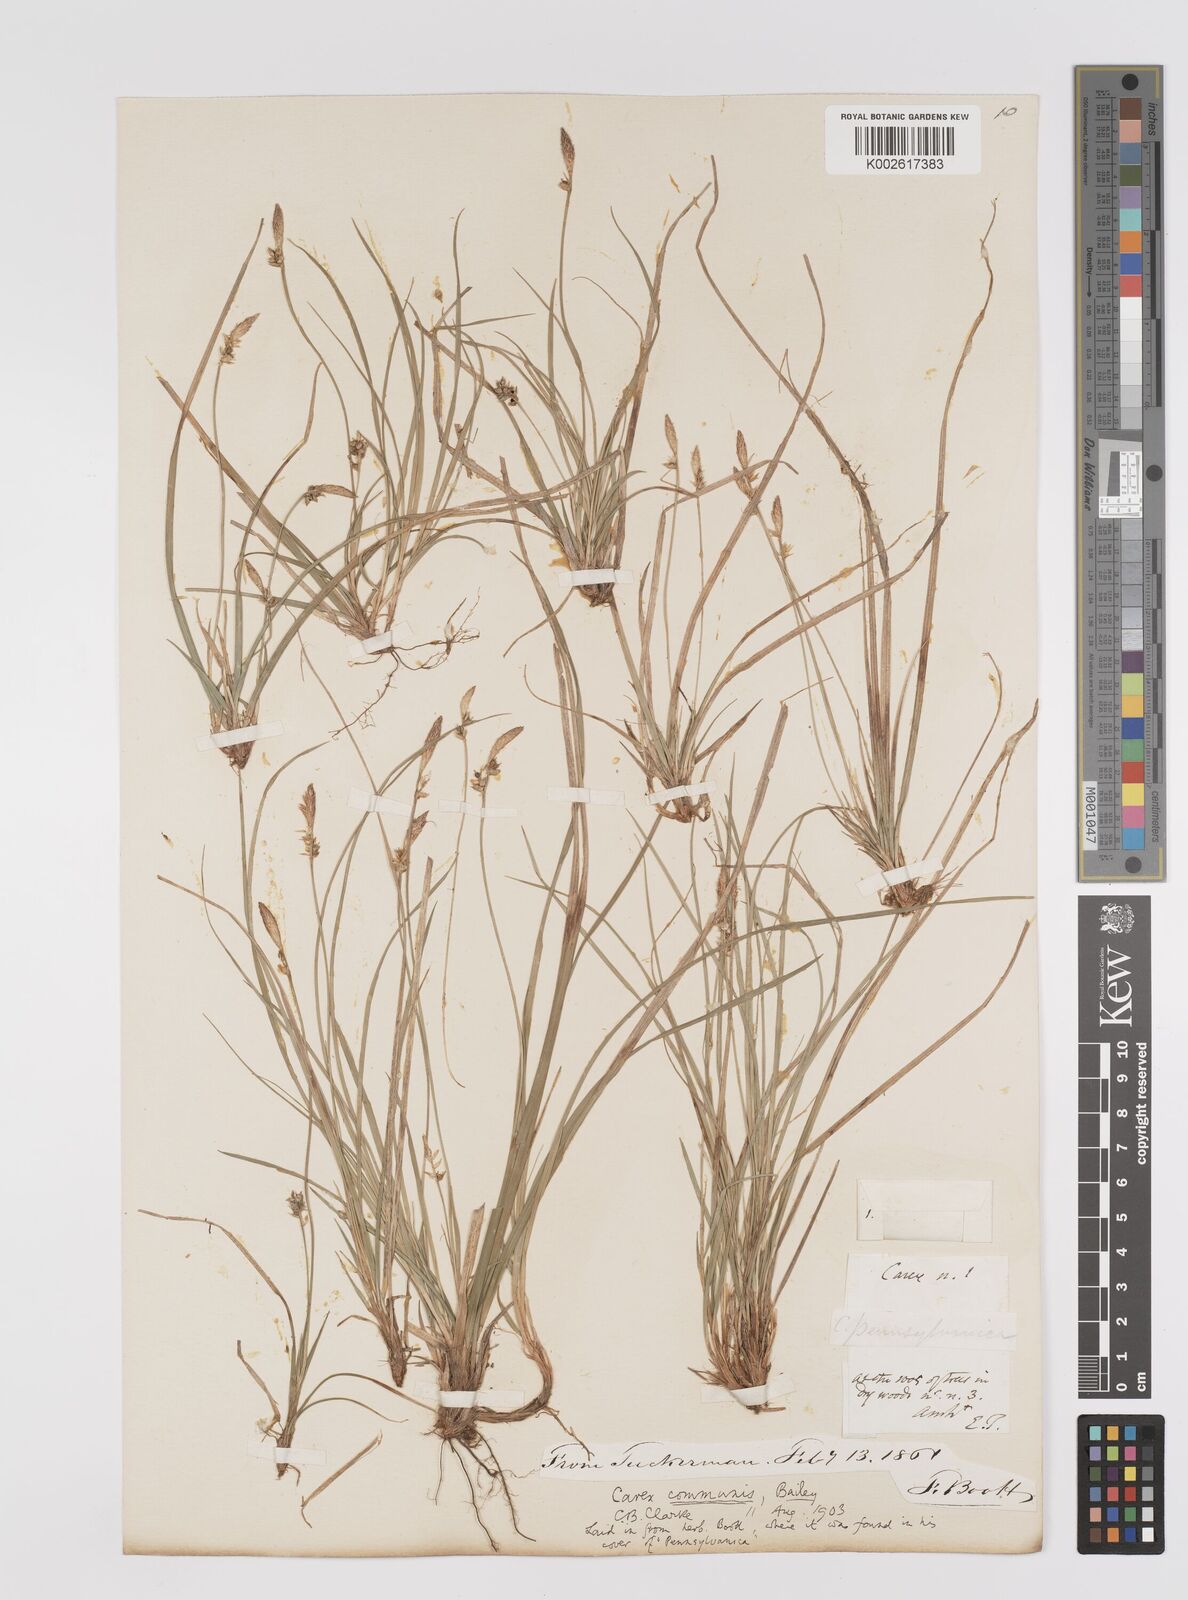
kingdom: Plantae
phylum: Tracheophyta
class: Liliopsida
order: Poales
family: Cyperaceae
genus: Carex
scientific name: Carex communis
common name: Colonial oak sedge
